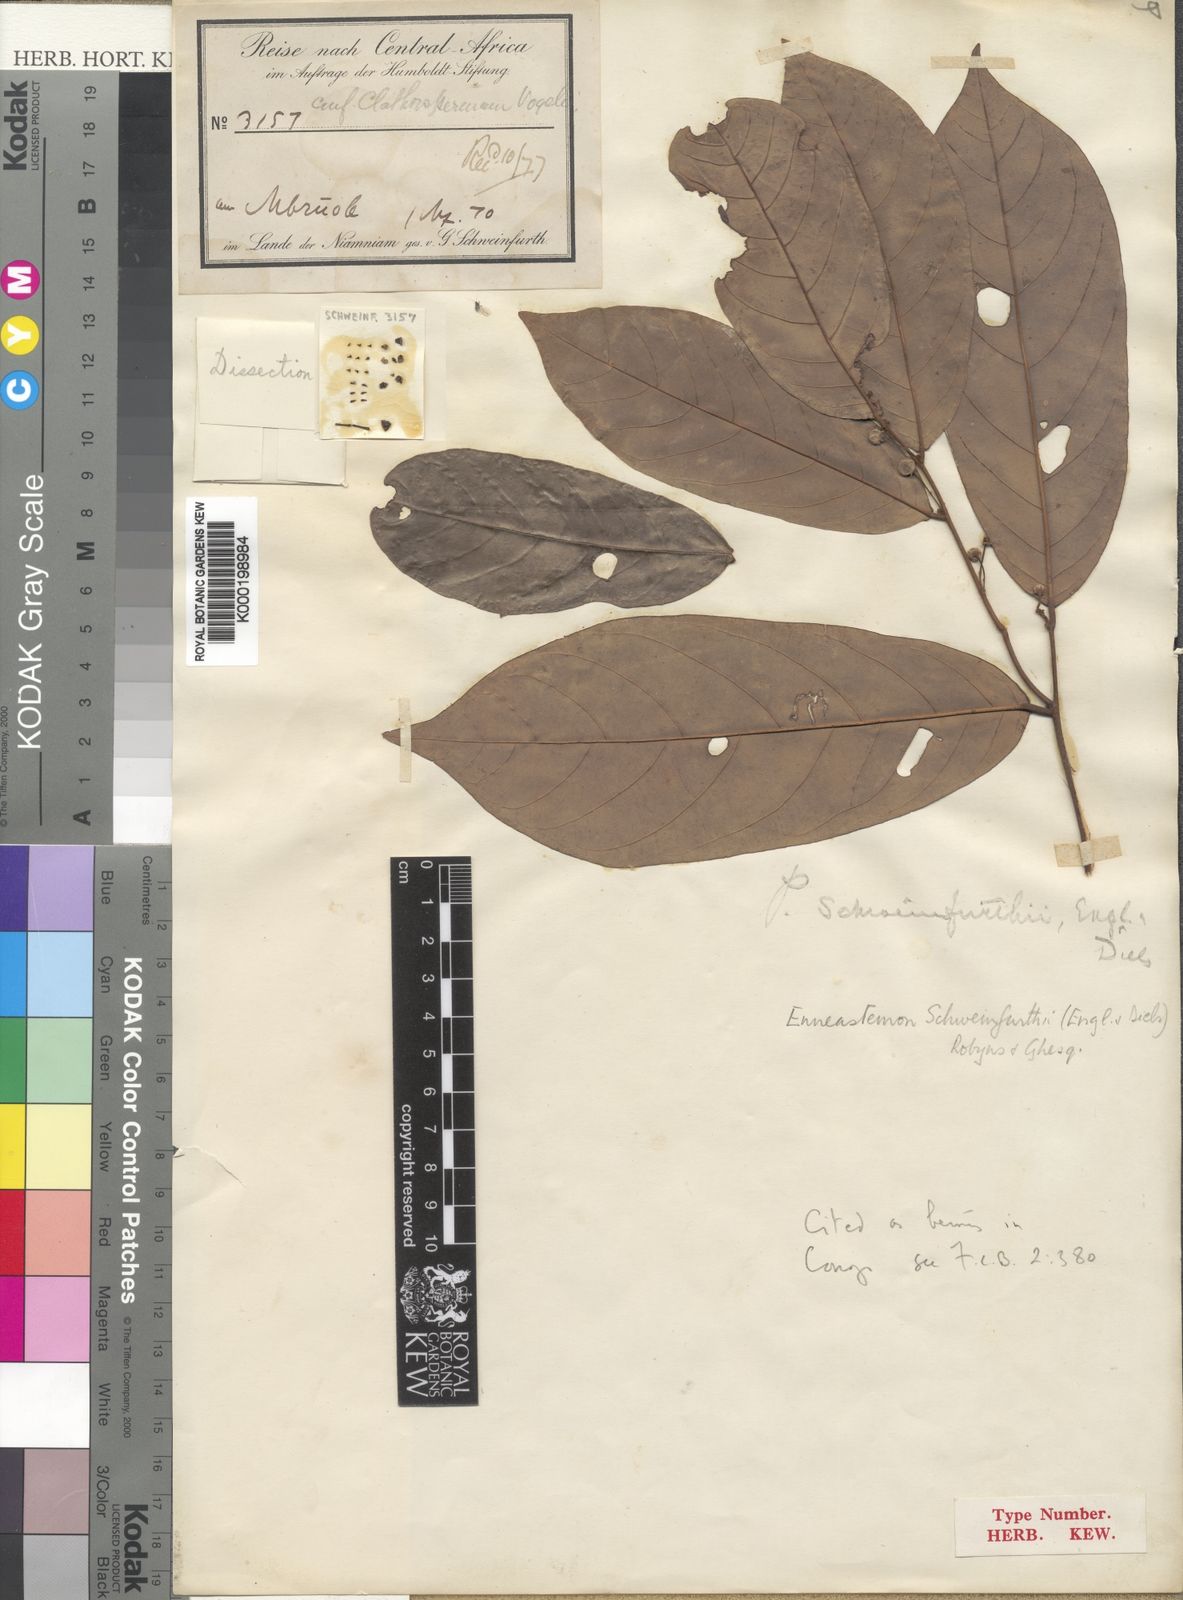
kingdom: Plantae
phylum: Tracheophyta
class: Magnoliopsida
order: Magnoliales
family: Annonaceae
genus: Monanthotaxis
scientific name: Monanthotaxis schweinfurthii
